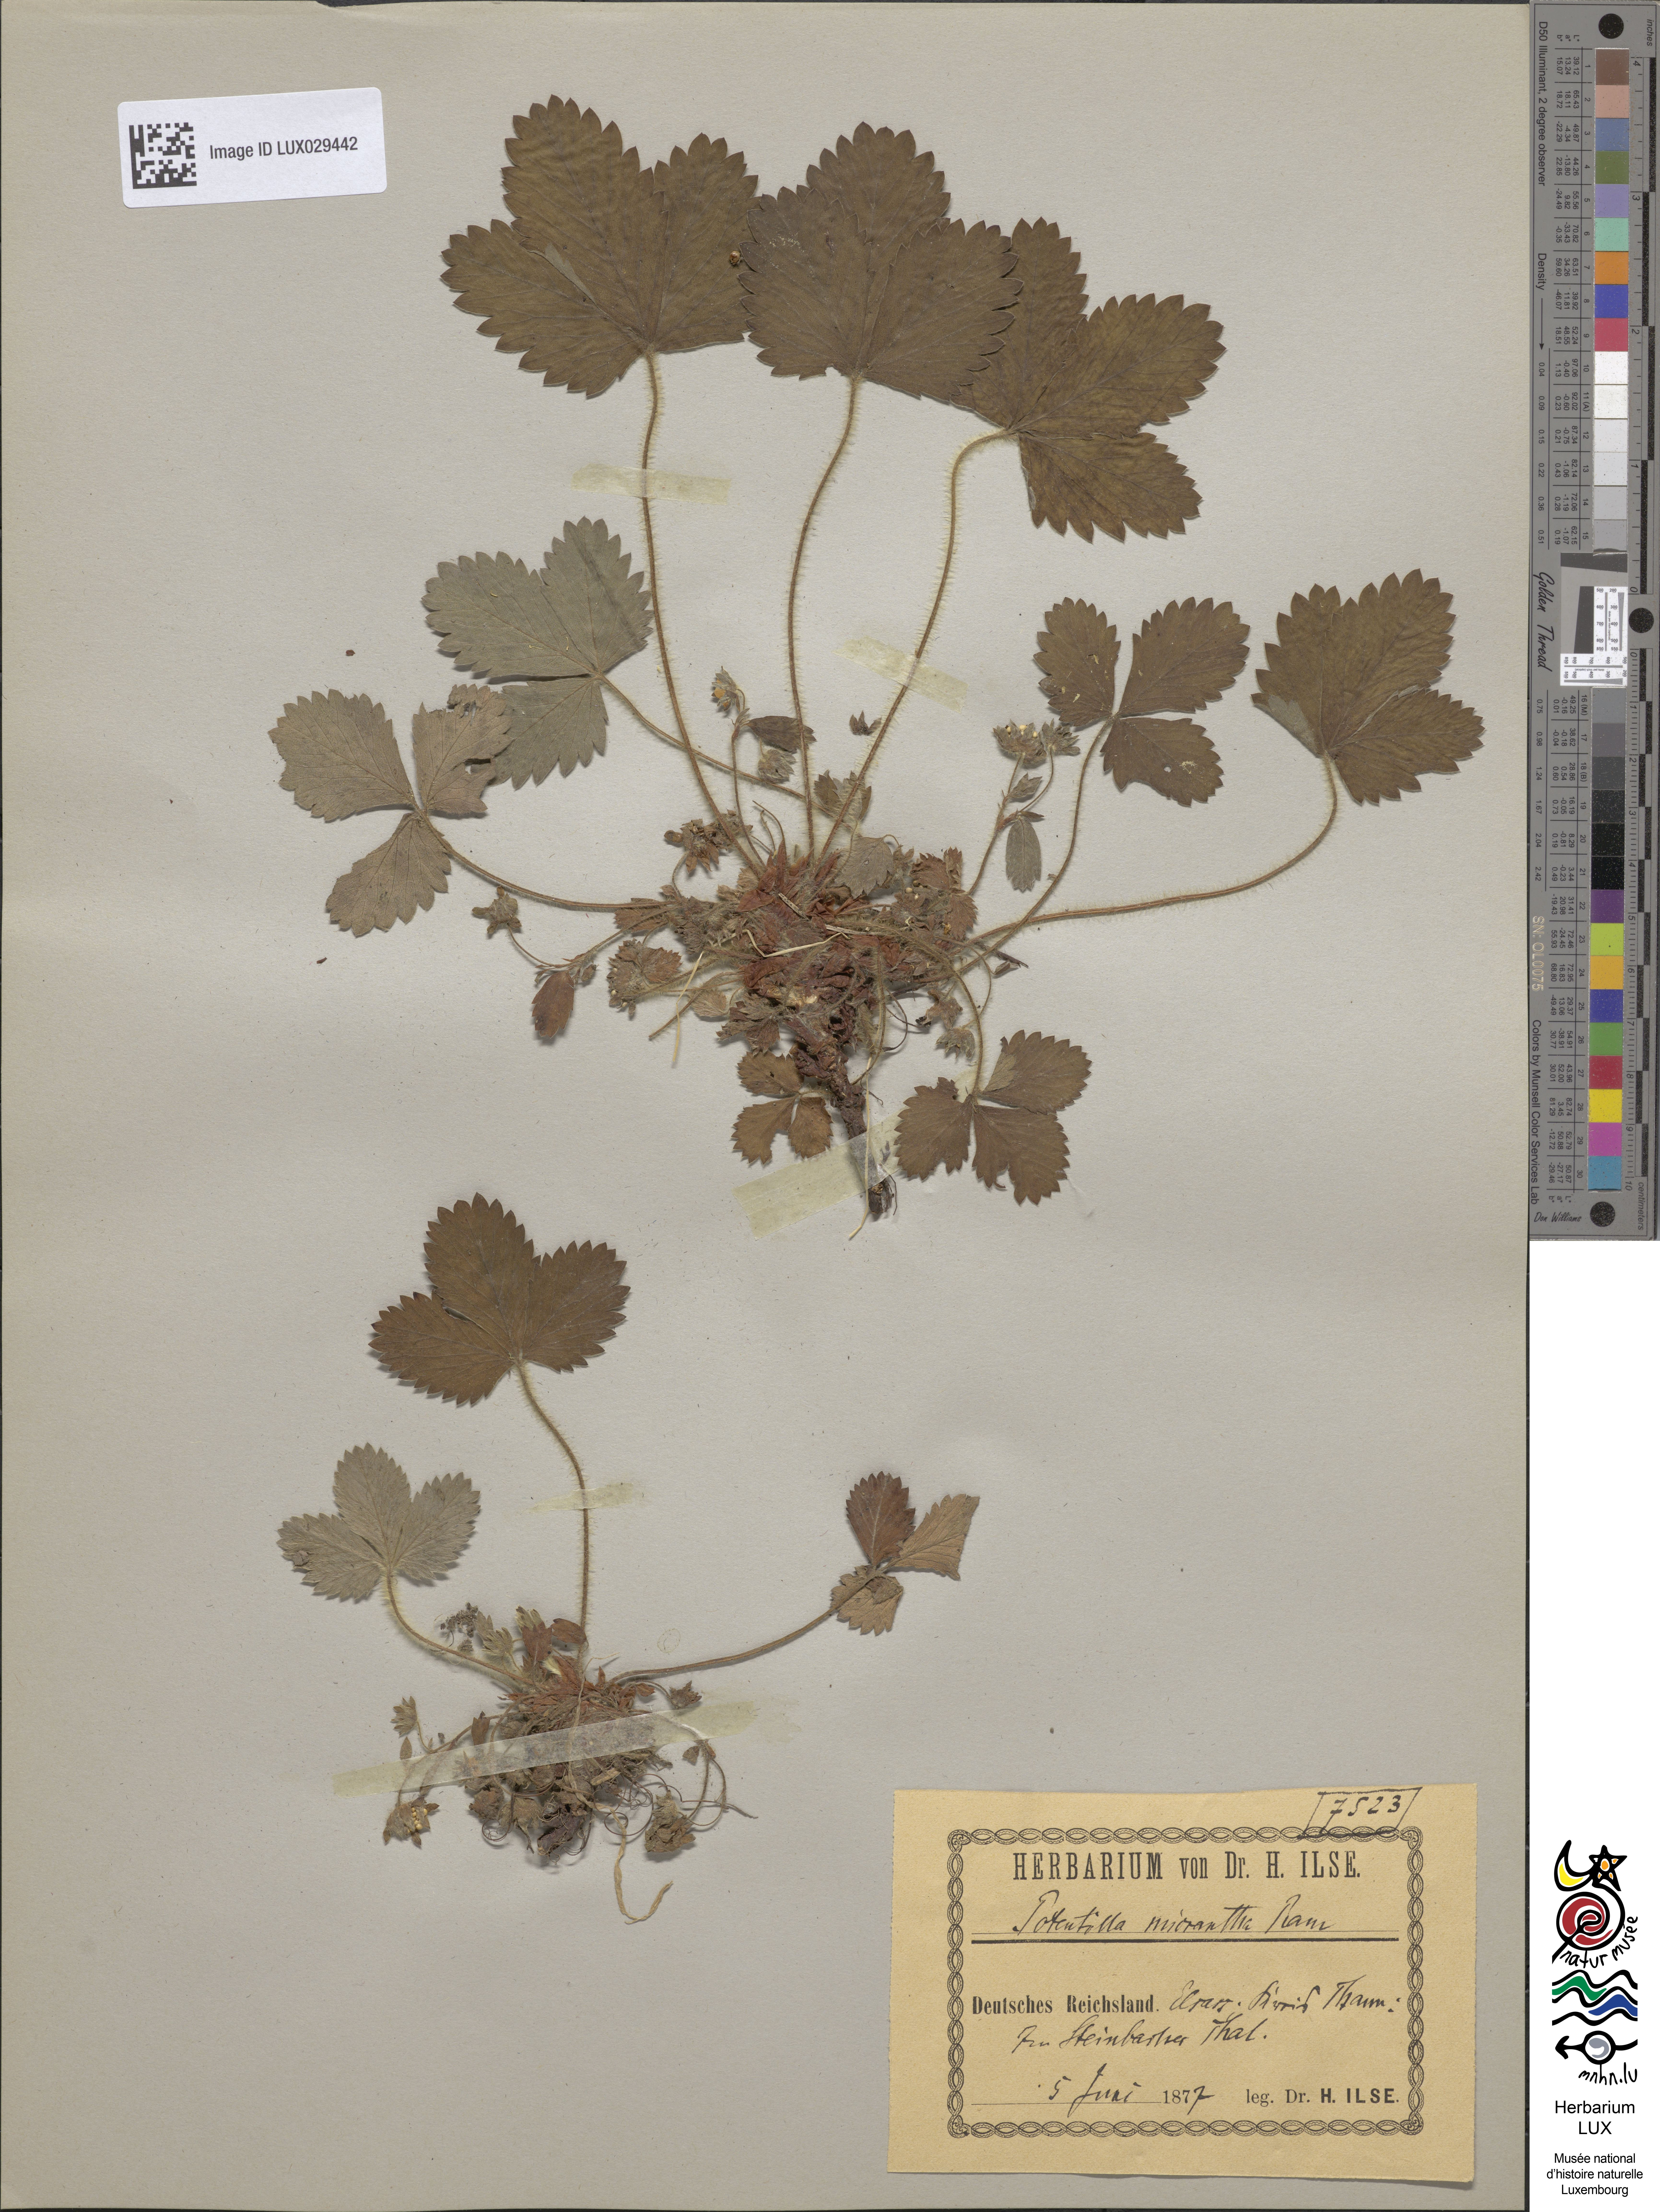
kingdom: Plantae
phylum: Tracheophyta
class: Magnoliopsida
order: Rosales
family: Rosaceae
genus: Potentilla
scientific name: Potentilla micrantha
